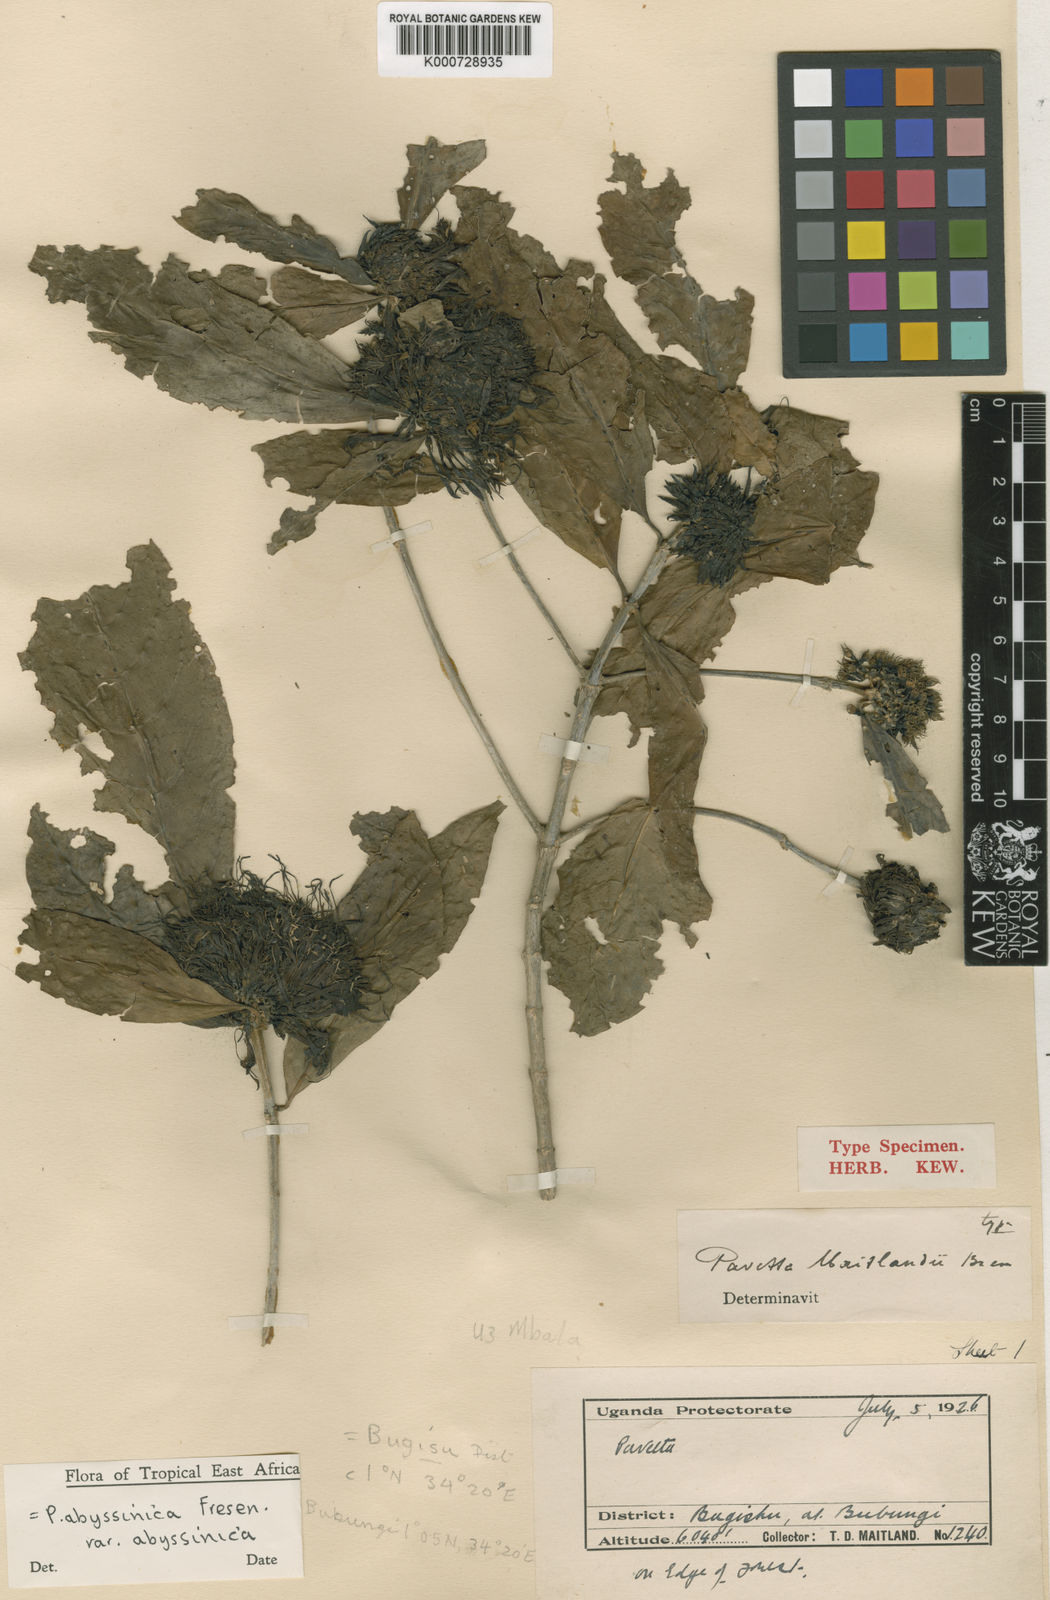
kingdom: Plantae
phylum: Tracheophyta
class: Magnoliopsida
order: Gentianales
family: Rubiaceae
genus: Pavetta
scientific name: Pavetta abyssinica
